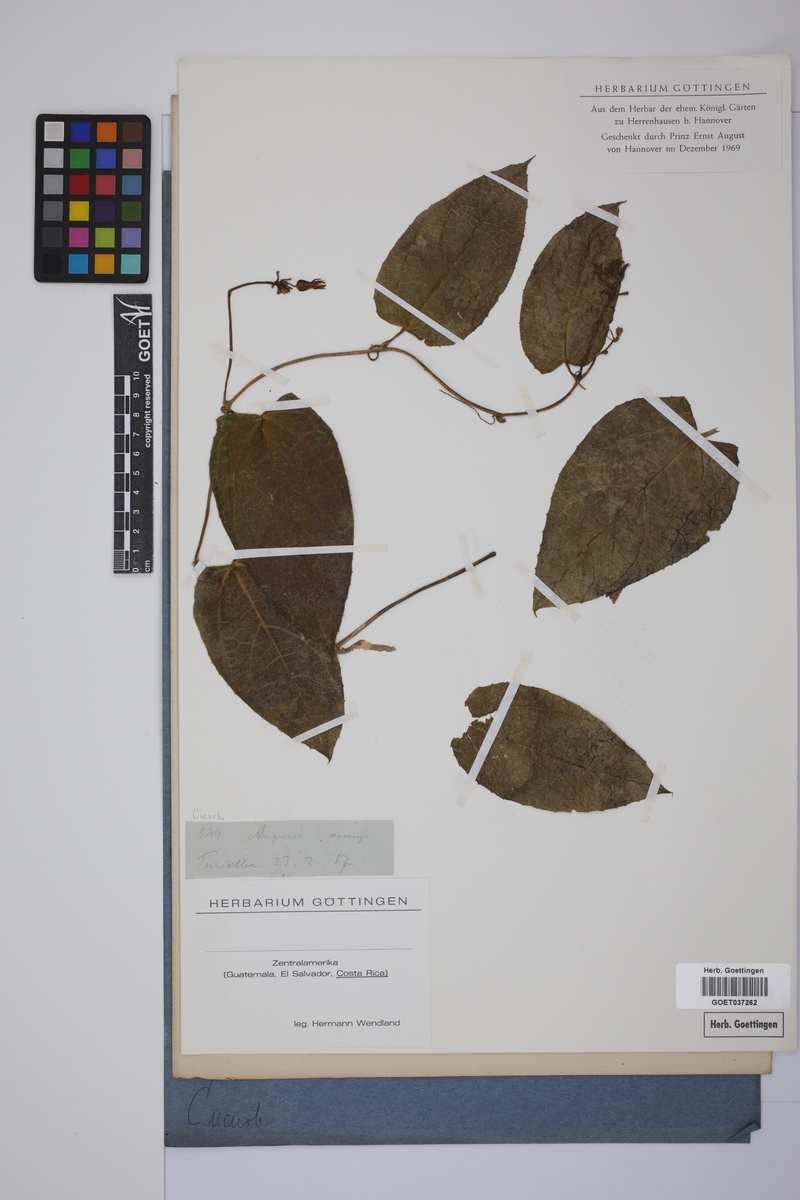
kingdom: Plantae
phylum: Tracheophyta
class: Magnoliopsida
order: Cucurbitales
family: Cucurbitaceae
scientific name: Cucurbitaceae
